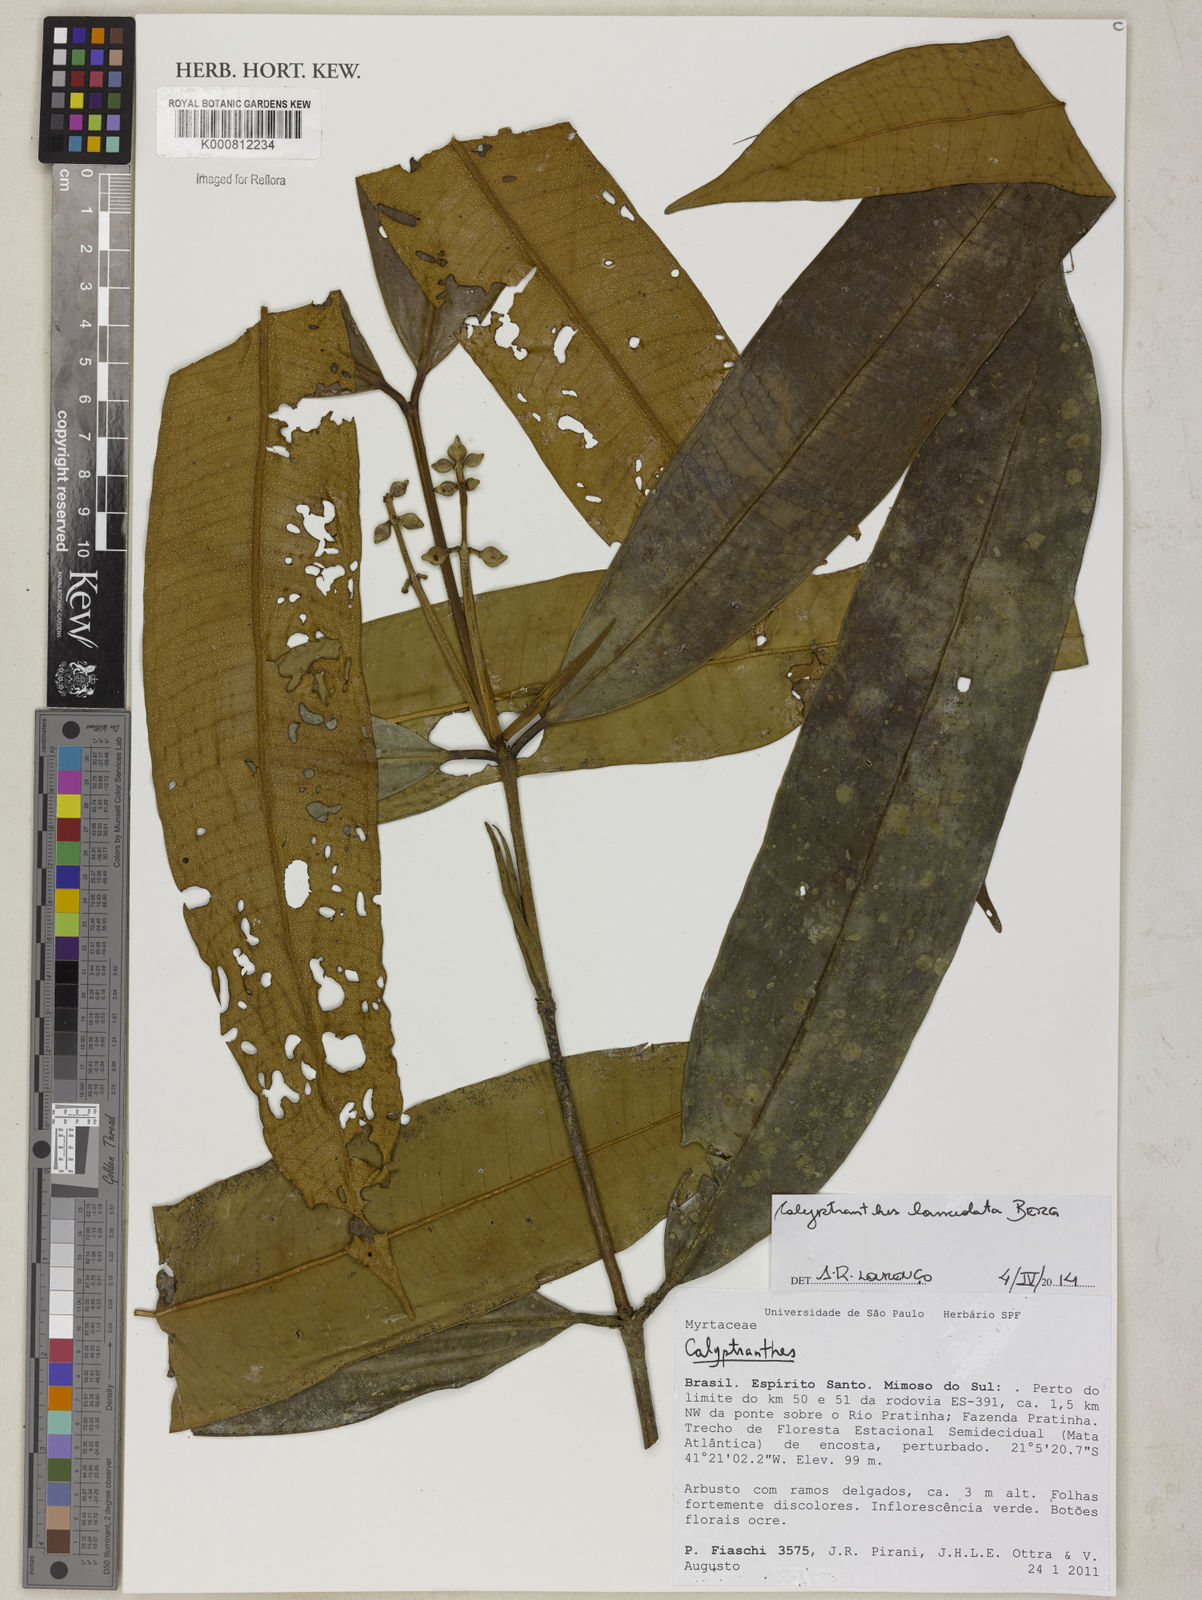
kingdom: Plantae
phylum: Tracheophyta
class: Magnoliopsida
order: Myrtales
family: Myrtaceae
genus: Calyptranthes
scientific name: Calyptranthes
